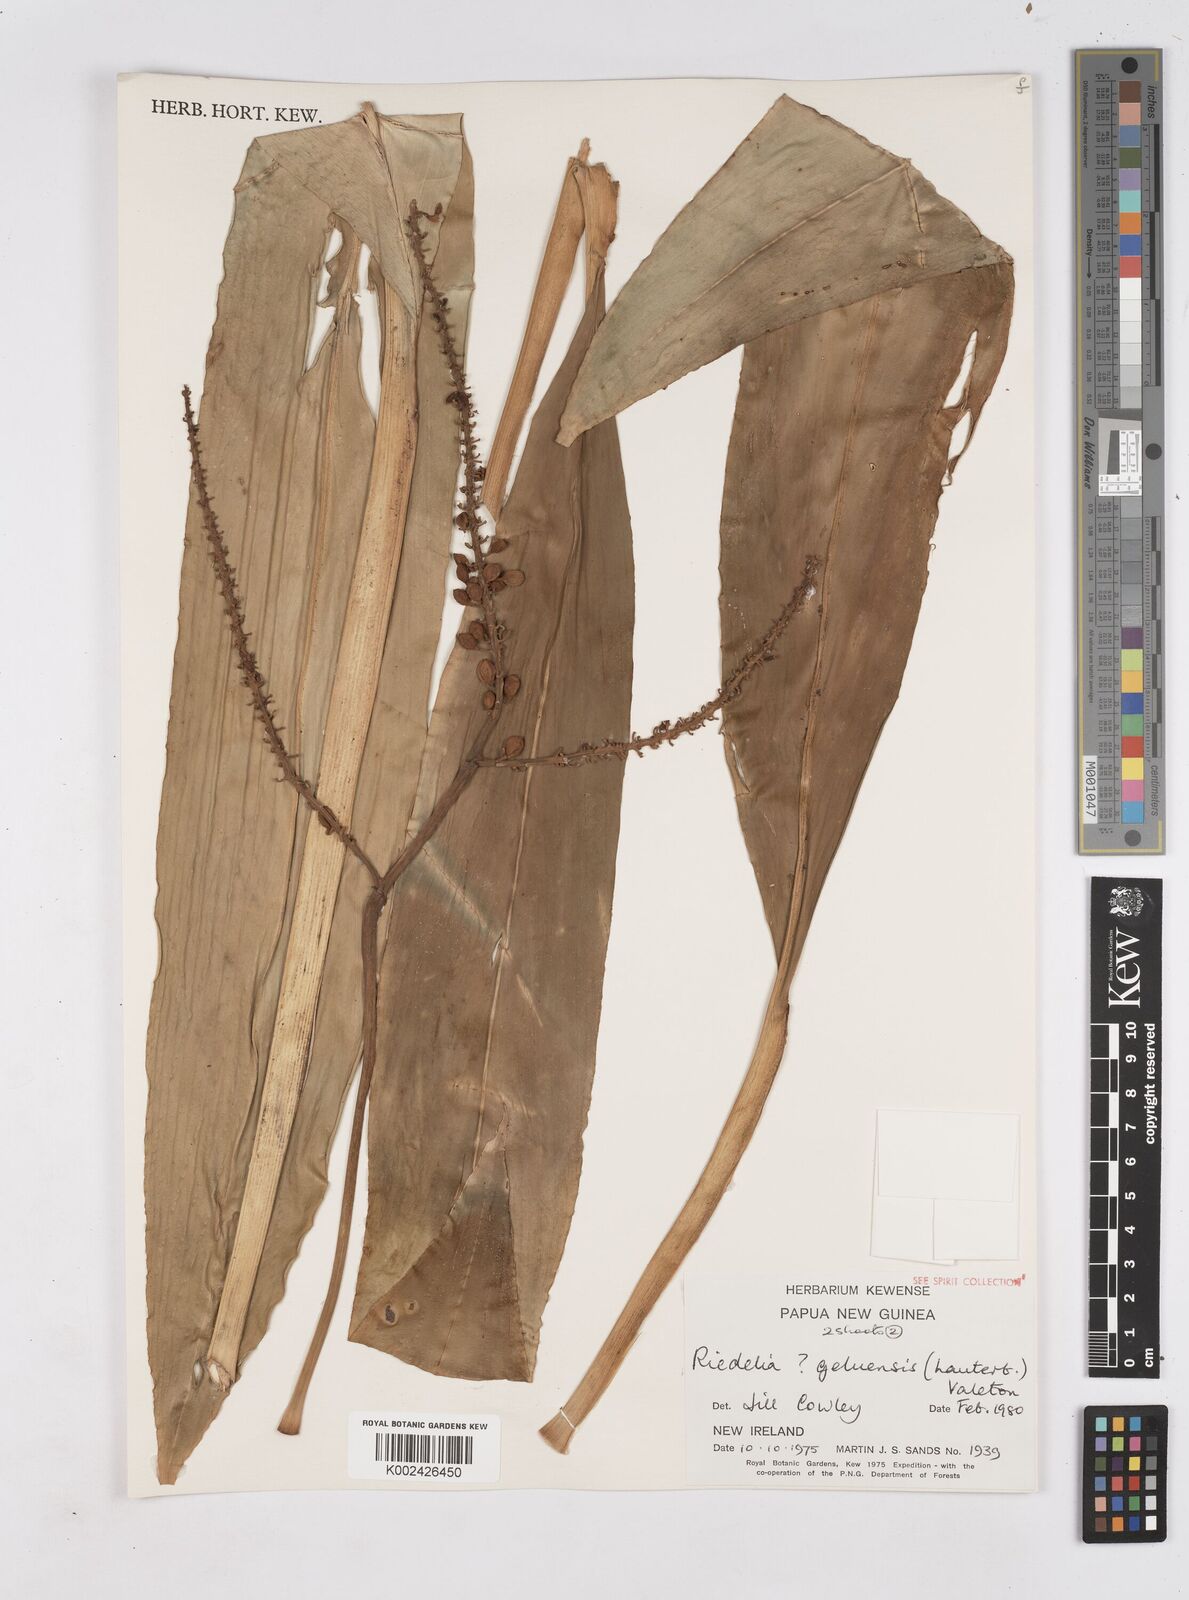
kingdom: Plantae
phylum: Tracheophyta
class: Liliopsida
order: Zingiberales
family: Zingiberaceae
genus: Riedelia
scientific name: Riedelia geluensis
